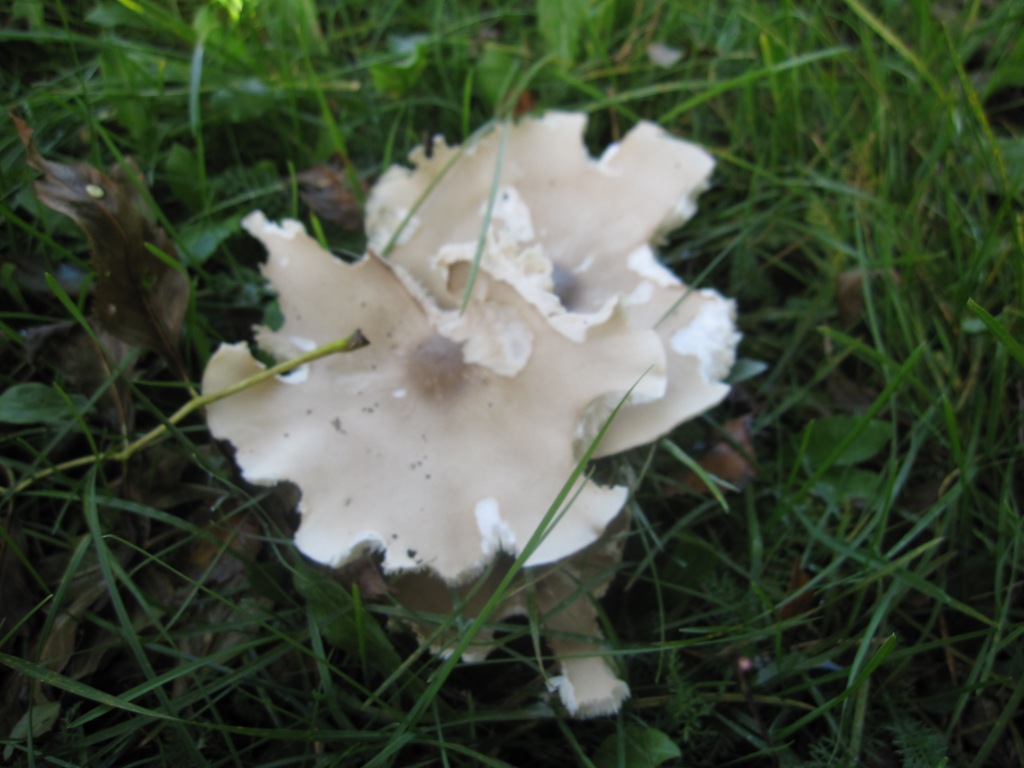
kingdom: Fungi
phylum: Basidiomycota
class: Agaricomycetes
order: Agaricales
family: Tricholomataceae
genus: Melanoleuca
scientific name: Melanoleuca grammopodia
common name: stribestokket munkehat
